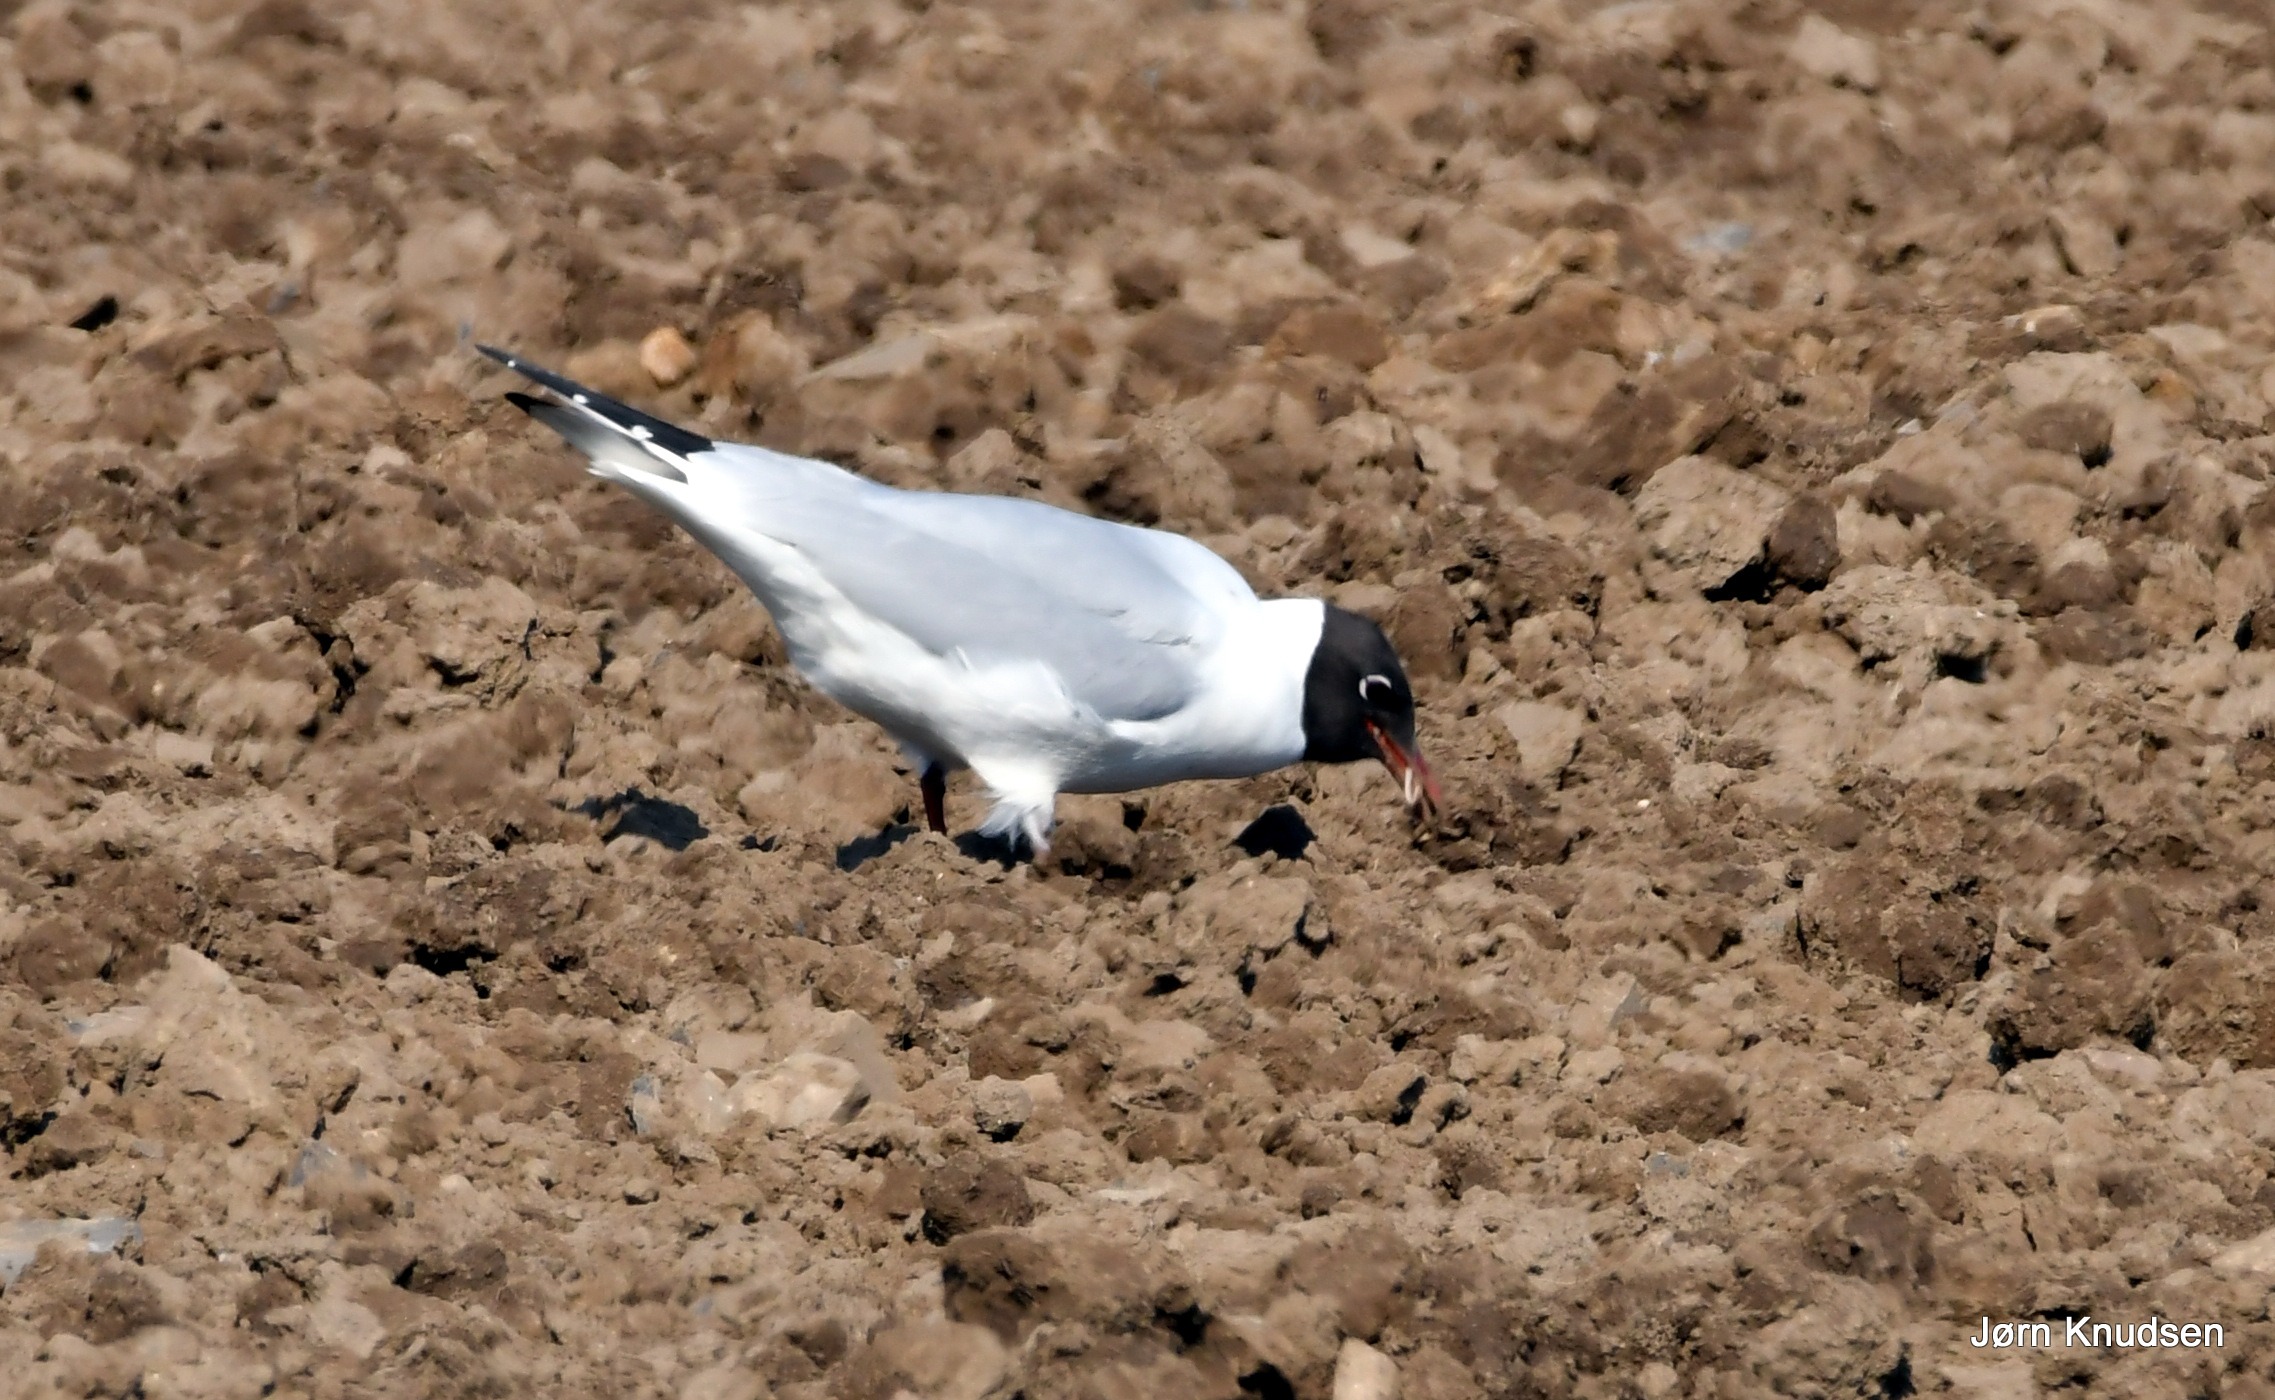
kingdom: Animalia
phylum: Chordata
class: Aves
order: Charadriiformes
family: Laridae
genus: Chroicocephalus
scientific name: Chroicocephalus ridibundus
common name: Hættemåge
